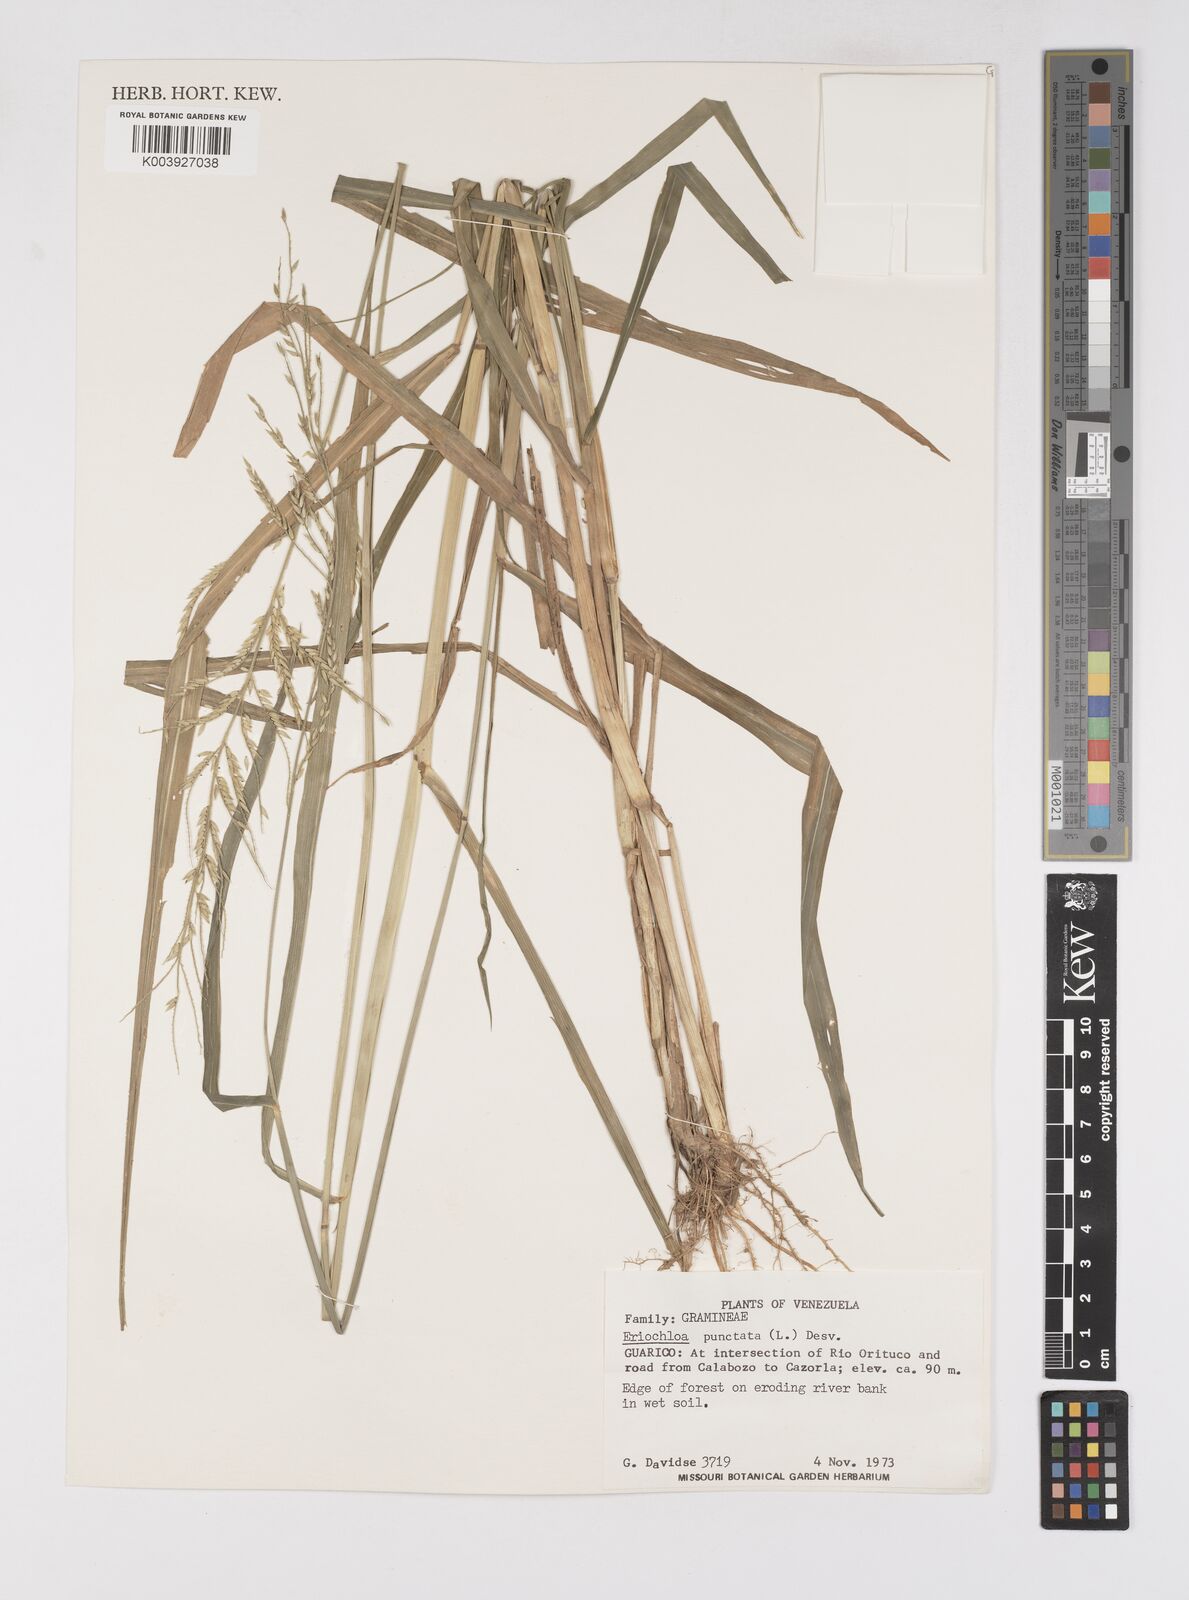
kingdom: Plantae
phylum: Tracheophyta
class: Liliopsida
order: Poales
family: Poaceae
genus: Eriochloa
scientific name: Eriochloa punctata
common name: Louisiana cupgrass
